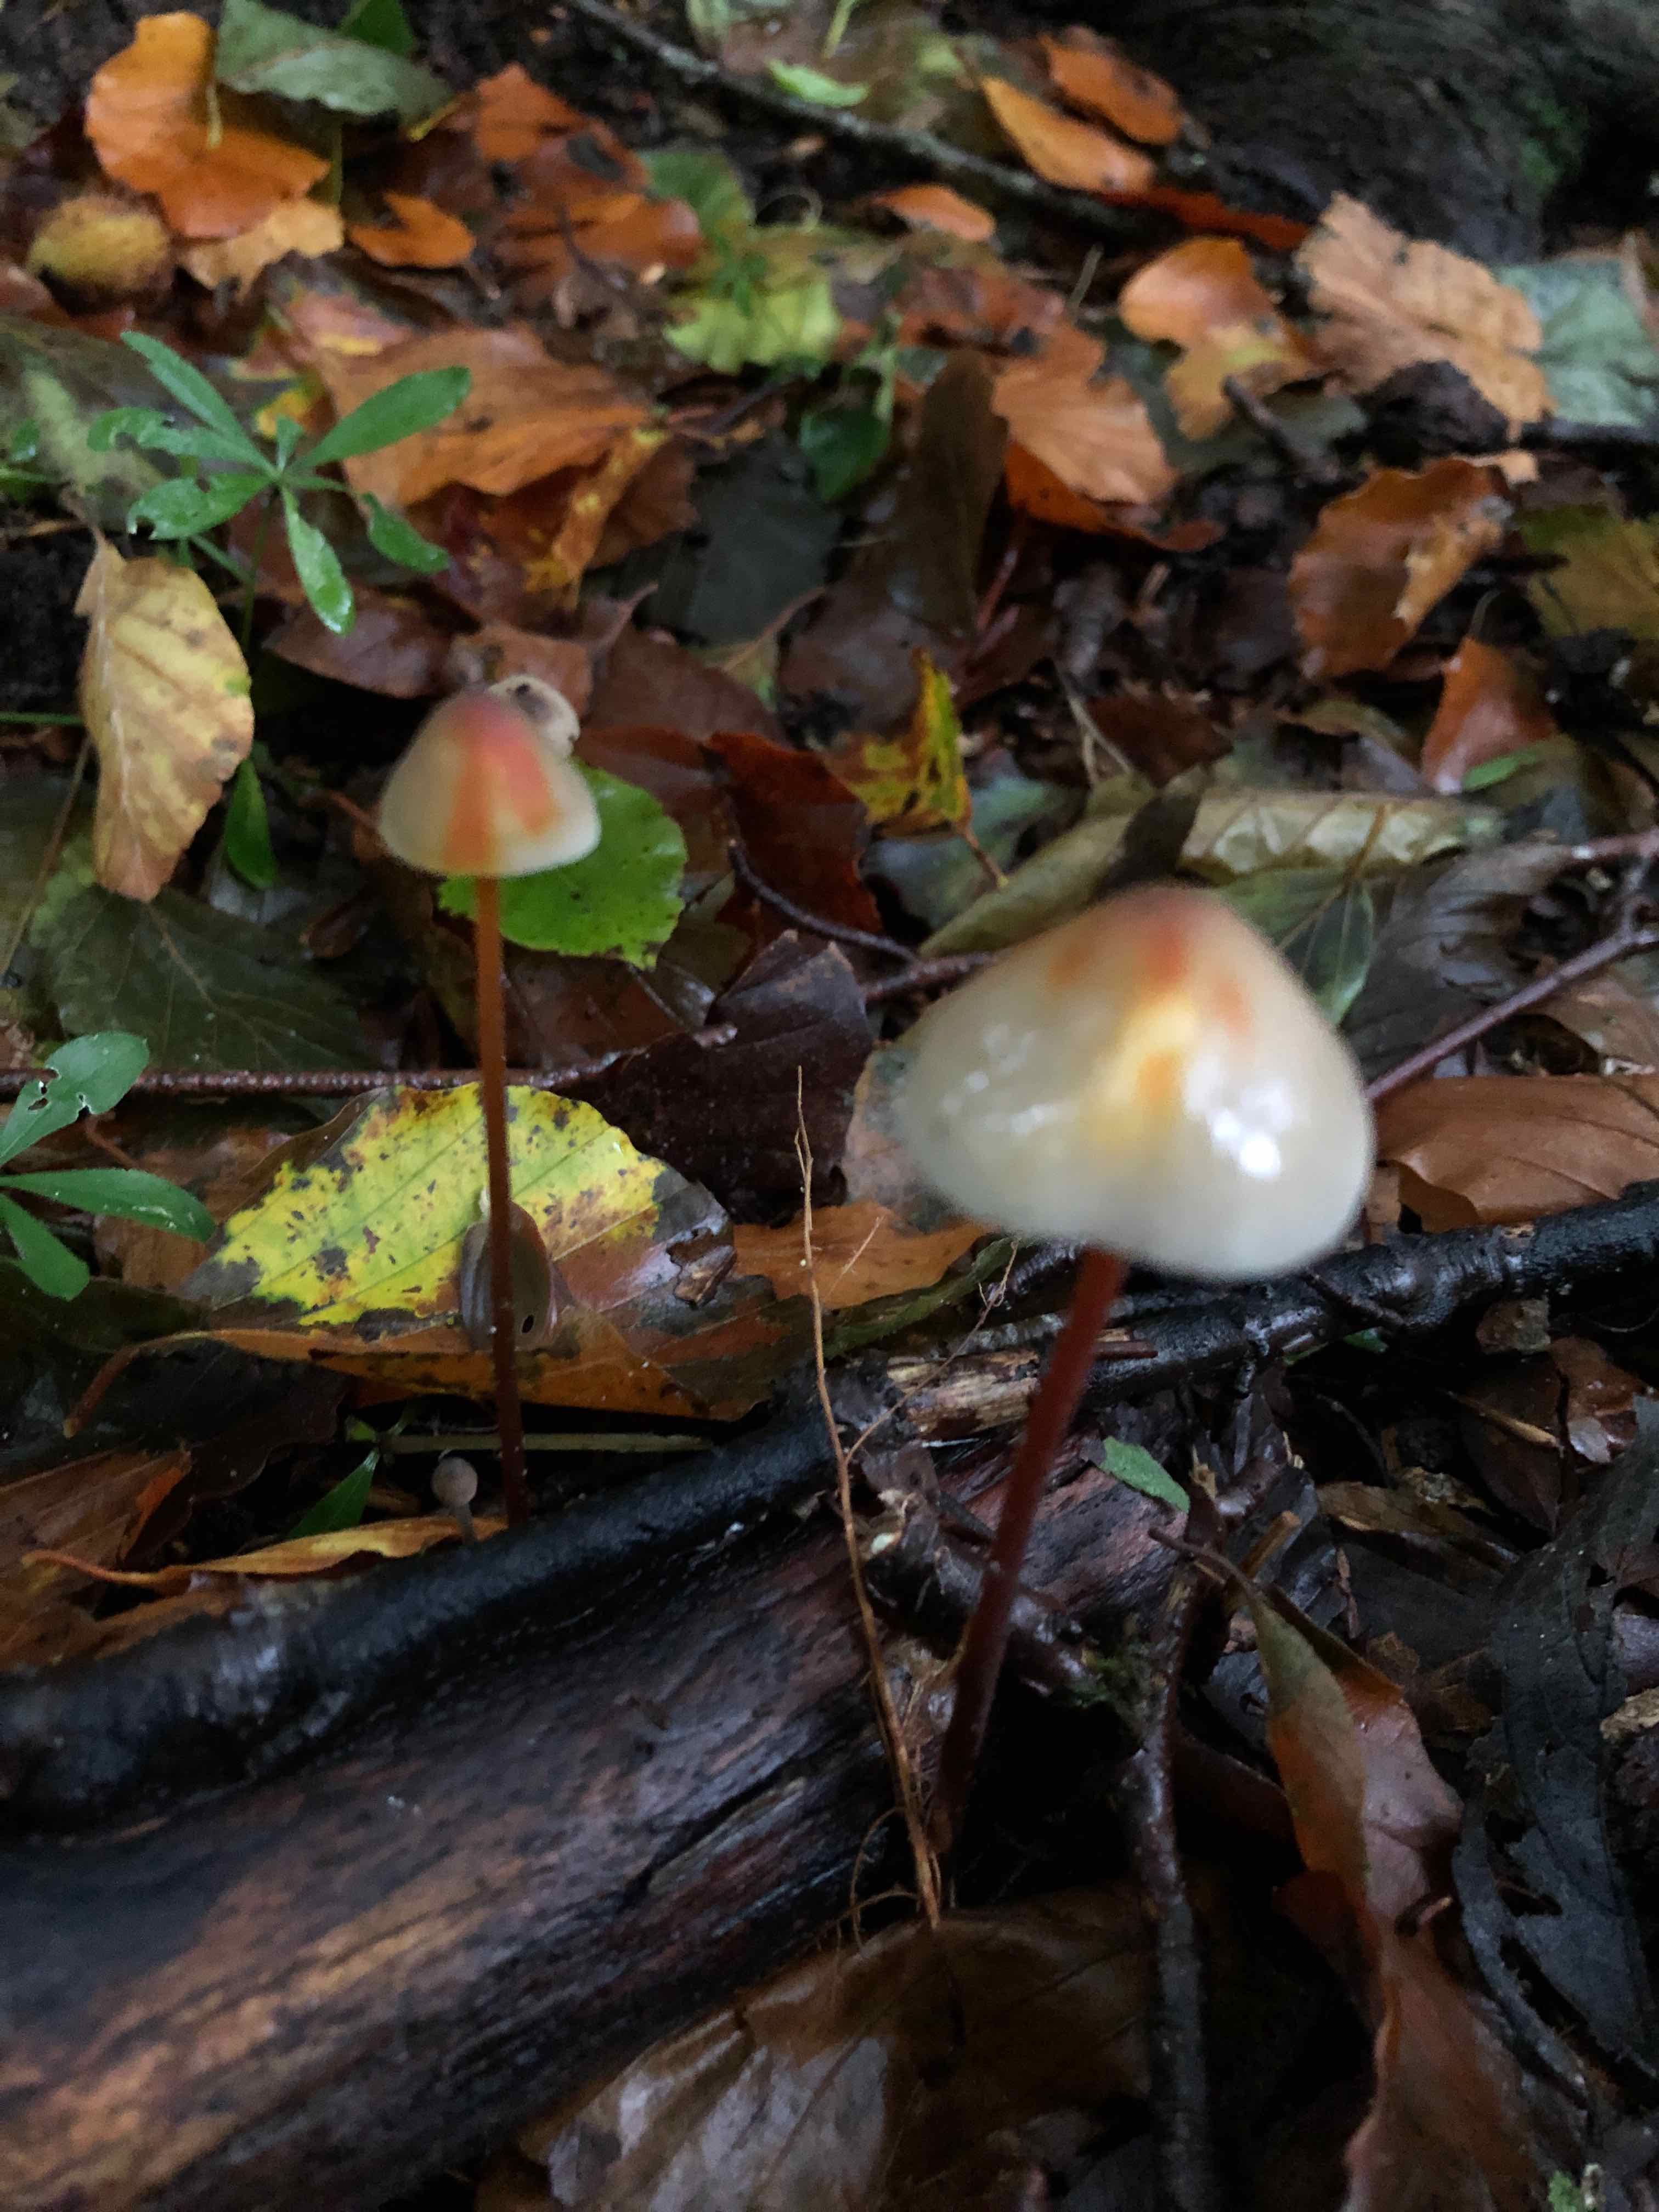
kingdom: Fungi
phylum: Basidiomycota
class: Agaricomycetes
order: Agaricales
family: Mycenaceae
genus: Mycena
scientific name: Mycena crocata
